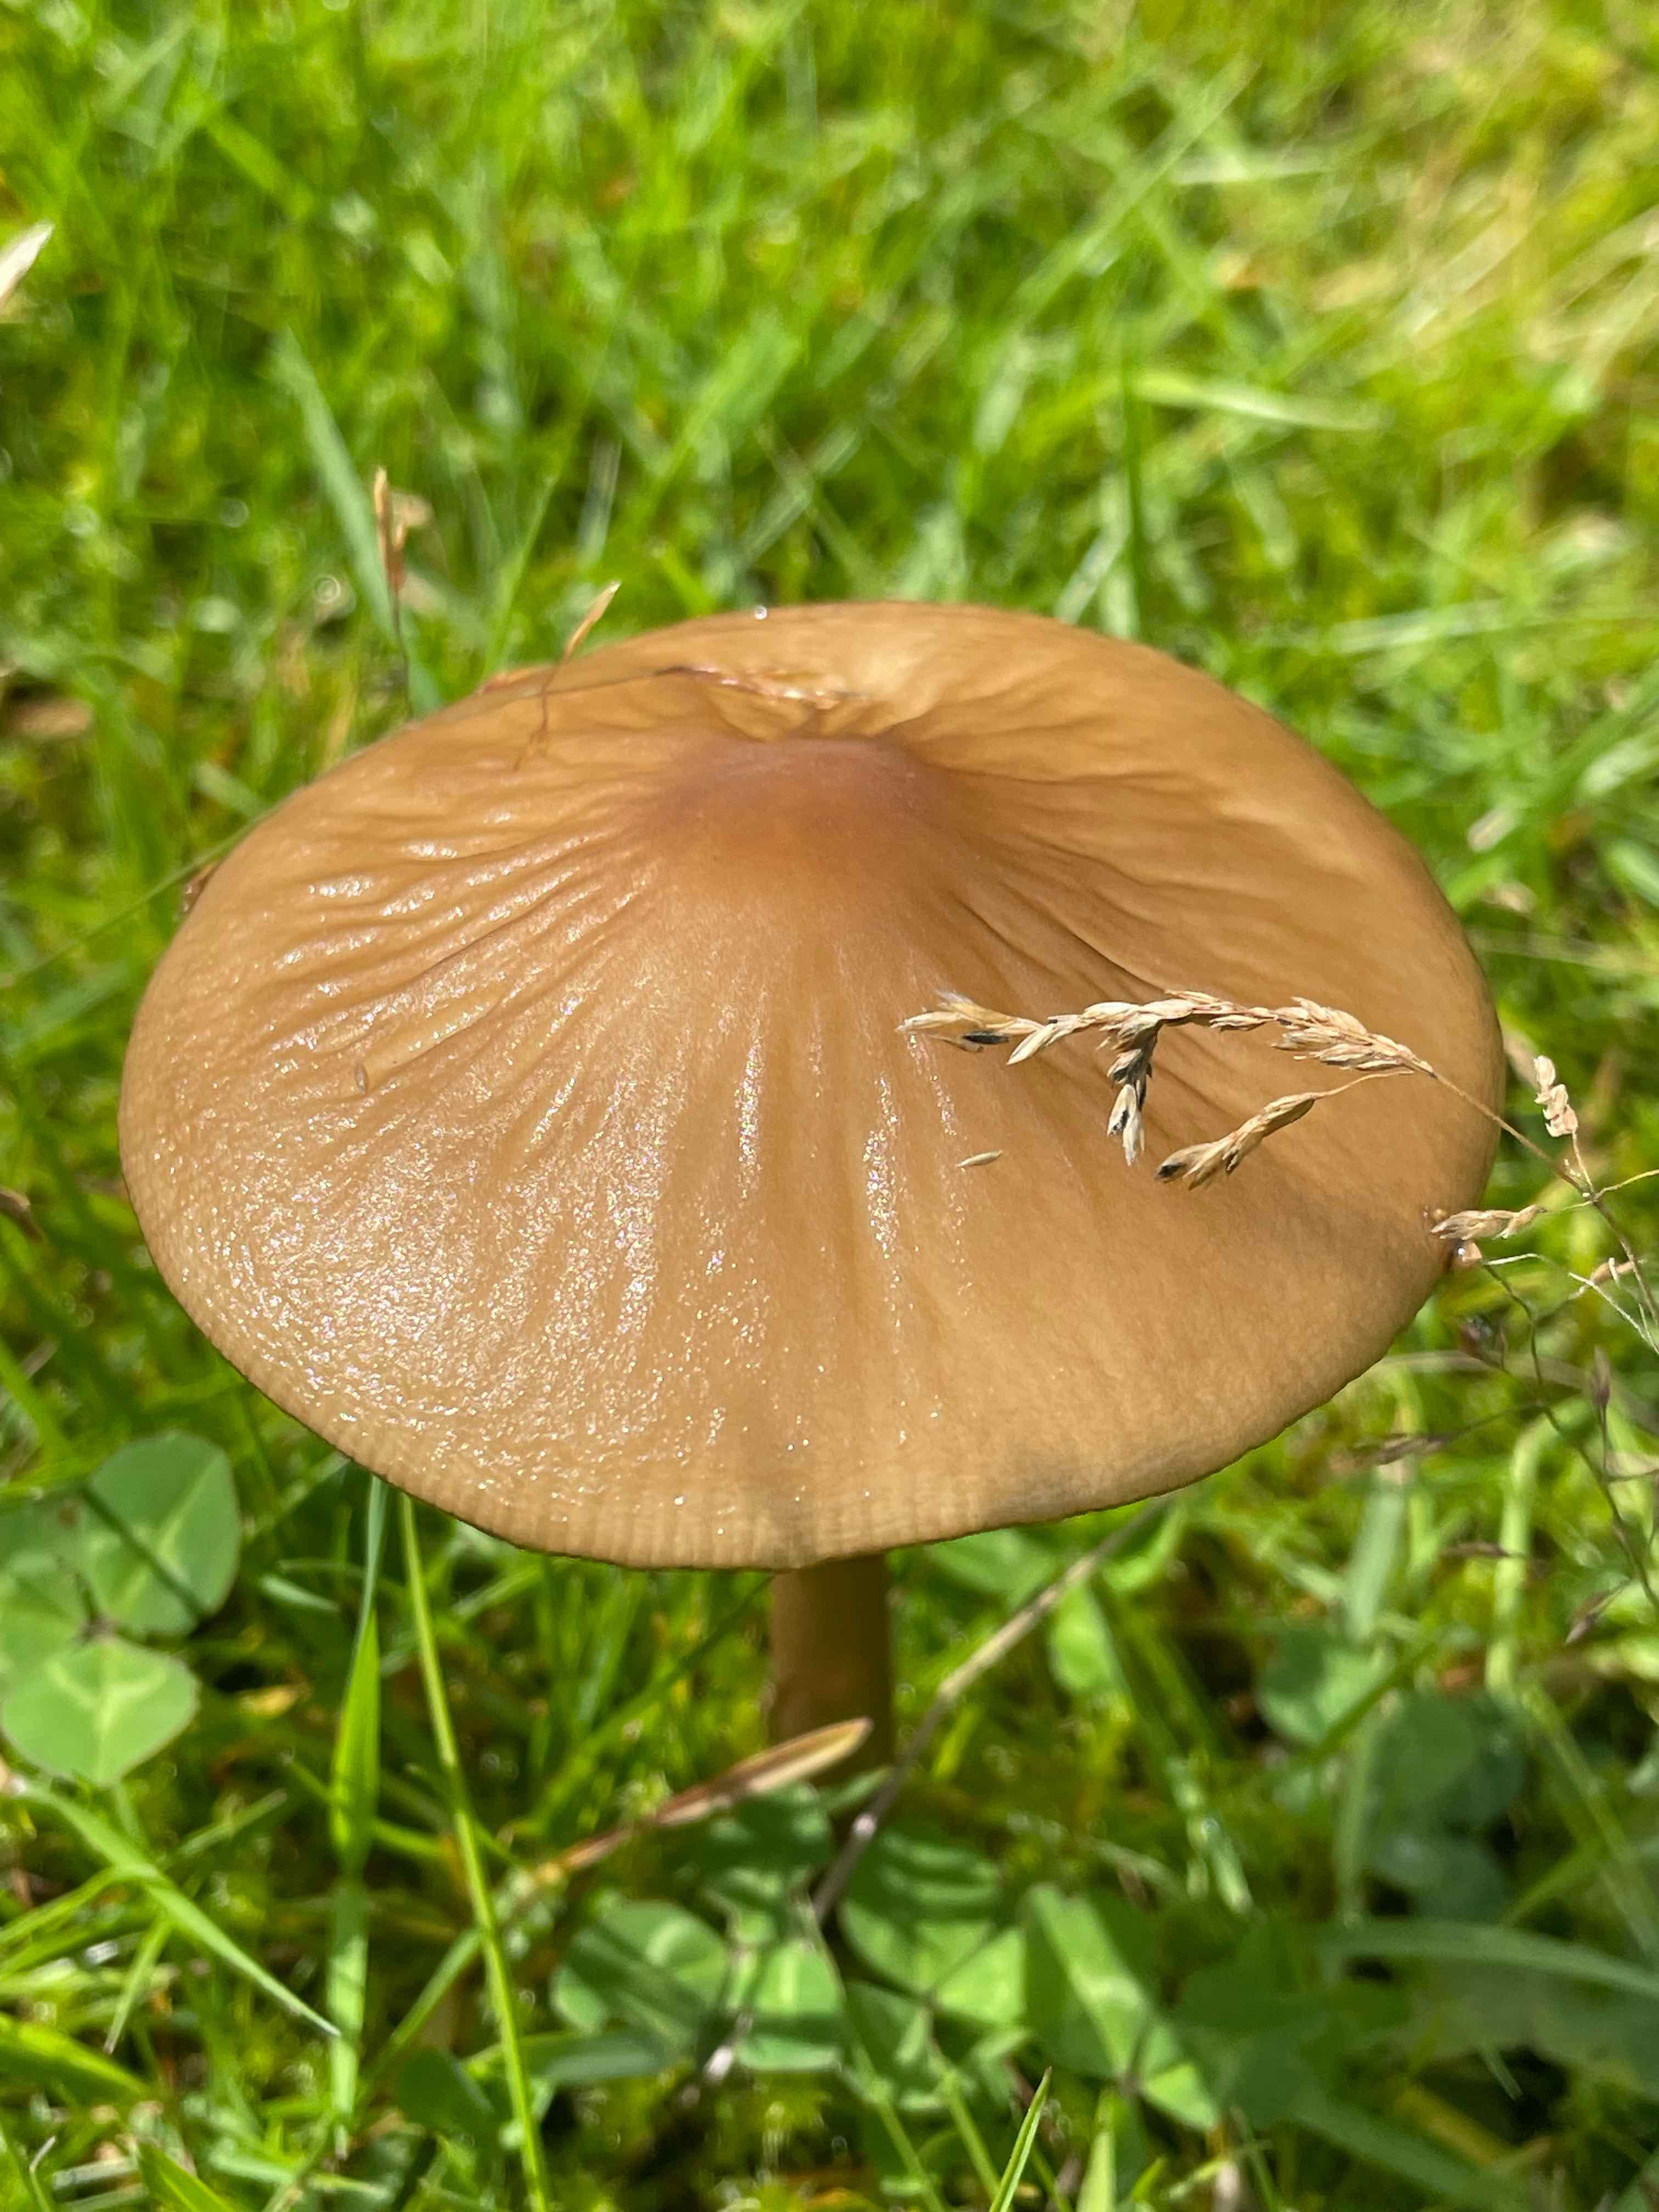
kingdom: Fungi
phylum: Basidiomycota
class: Agaricomycetes
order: Agaricales
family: Physalacriaceae
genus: Hymenopellis
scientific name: Hymenopellis radicata
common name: almindelig pælerodshat
